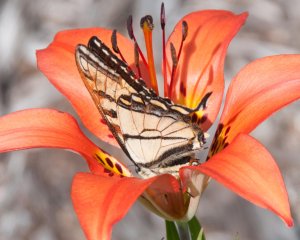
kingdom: Animalia
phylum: Arthropoda
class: Insecta
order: Lepidoptera
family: Papilionidae
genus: Pterourus
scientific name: Pterourus canadensis
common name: Canadian Tiger Swallowtail
